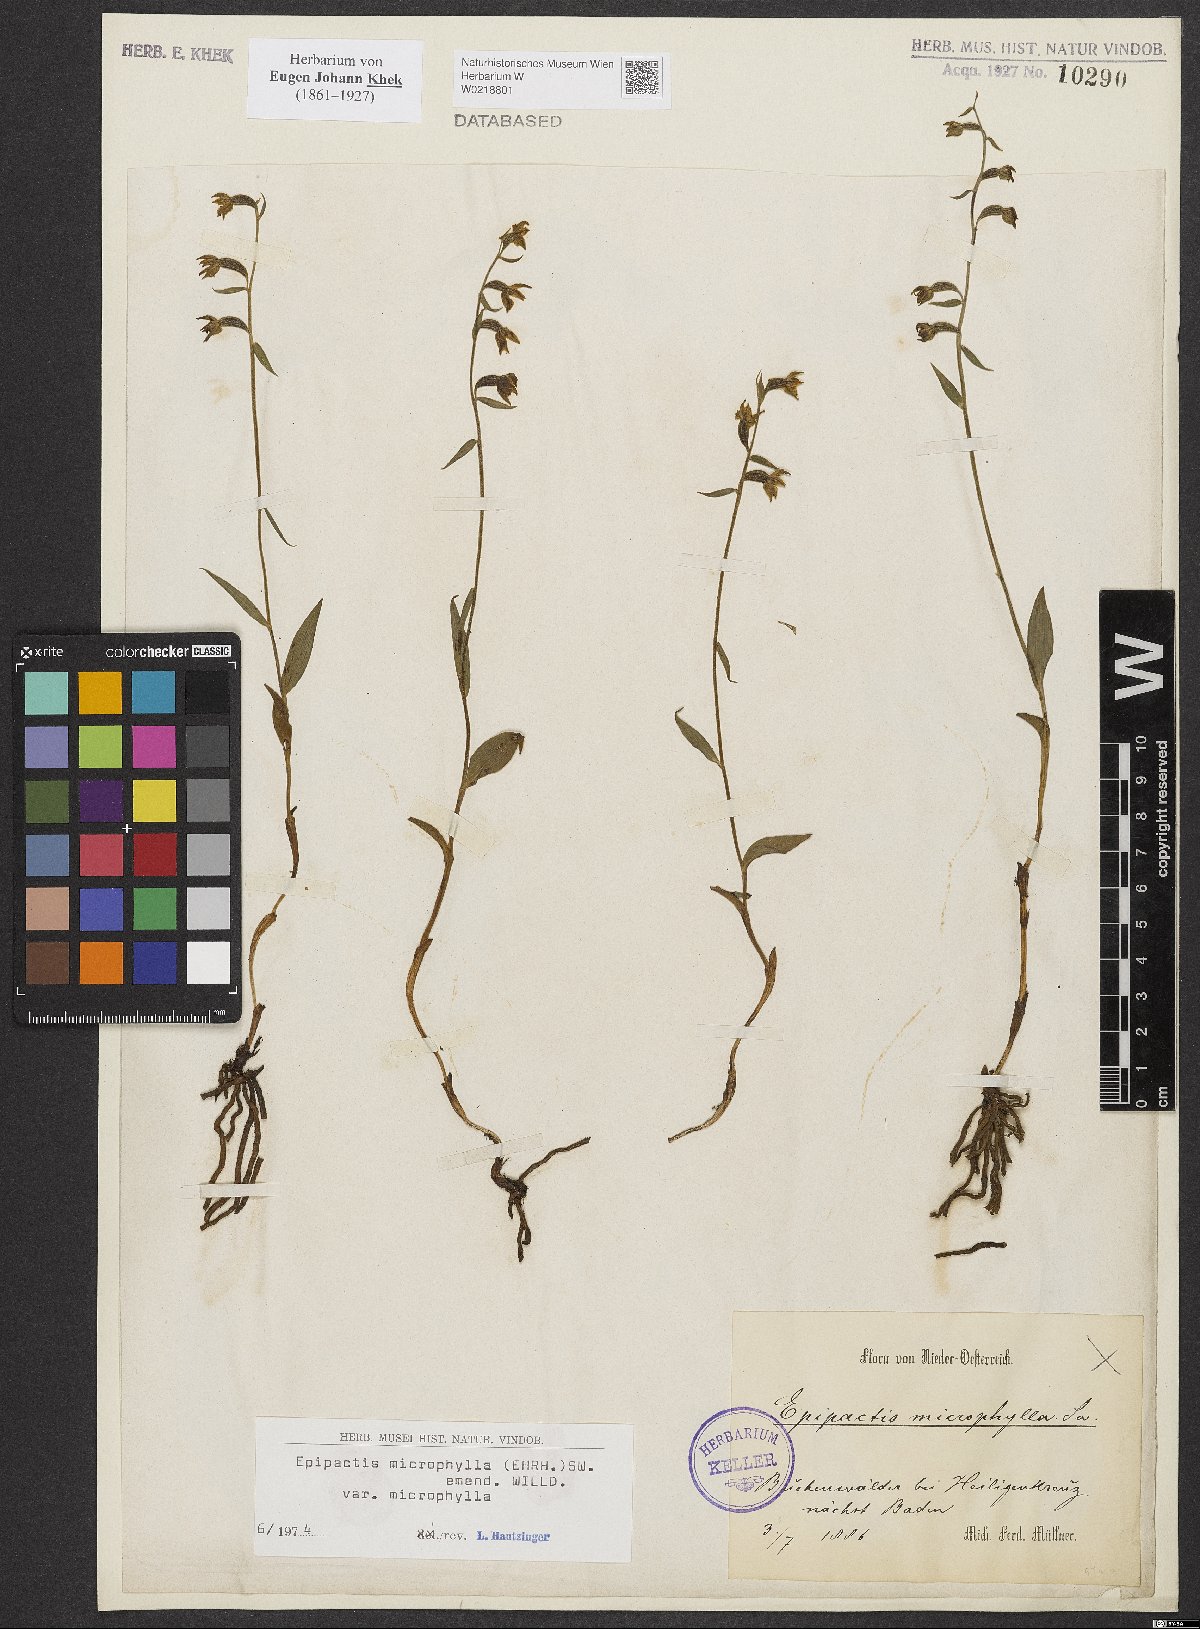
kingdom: Plantae
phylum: Tracheophyta
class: Liliopsida
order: Asparagales
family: Orchidaceae
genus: Epipactis
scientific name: Epipactis microphylla
